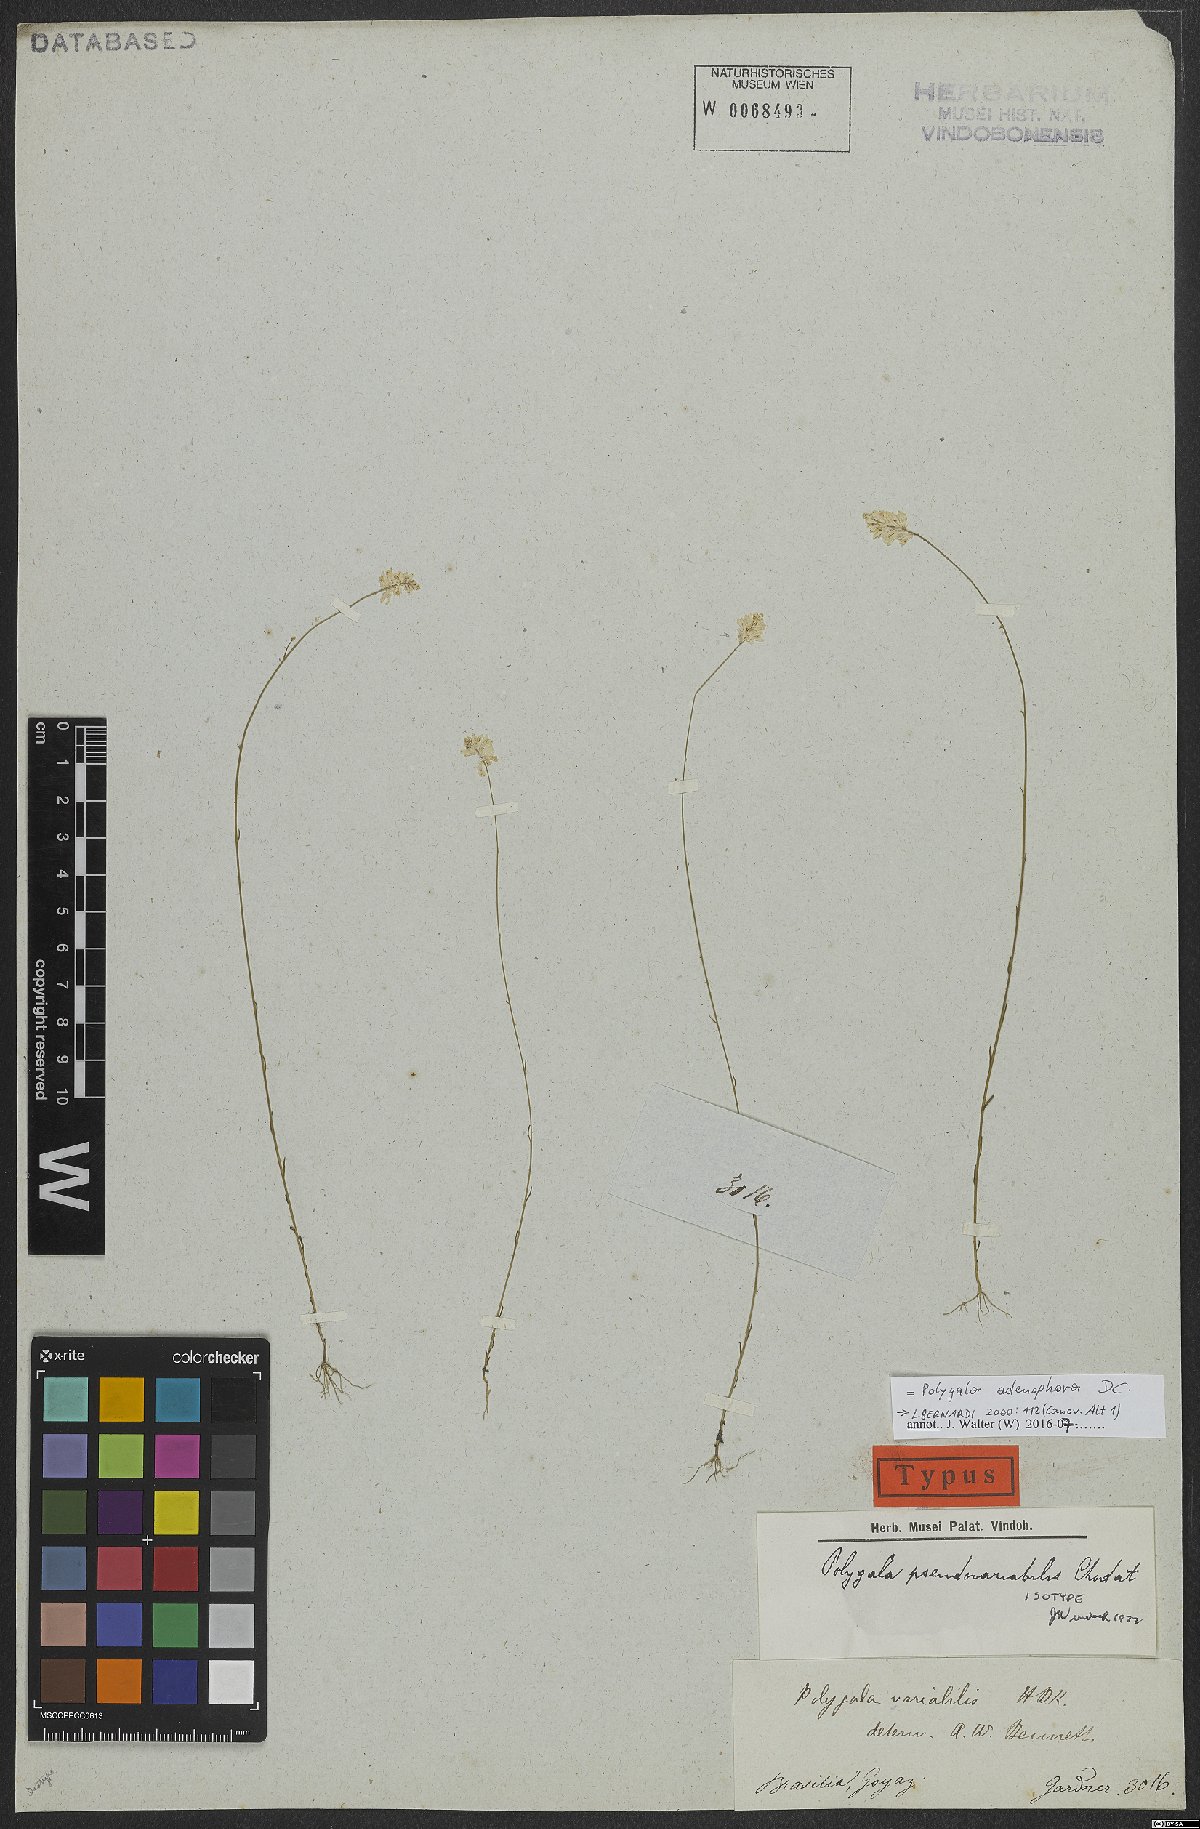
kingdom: Plantae
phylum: Tracheophyta
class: Magnoliopsida
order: Fabales
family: Polygalaceae
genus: Polygala
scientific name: Polygala adenophora
